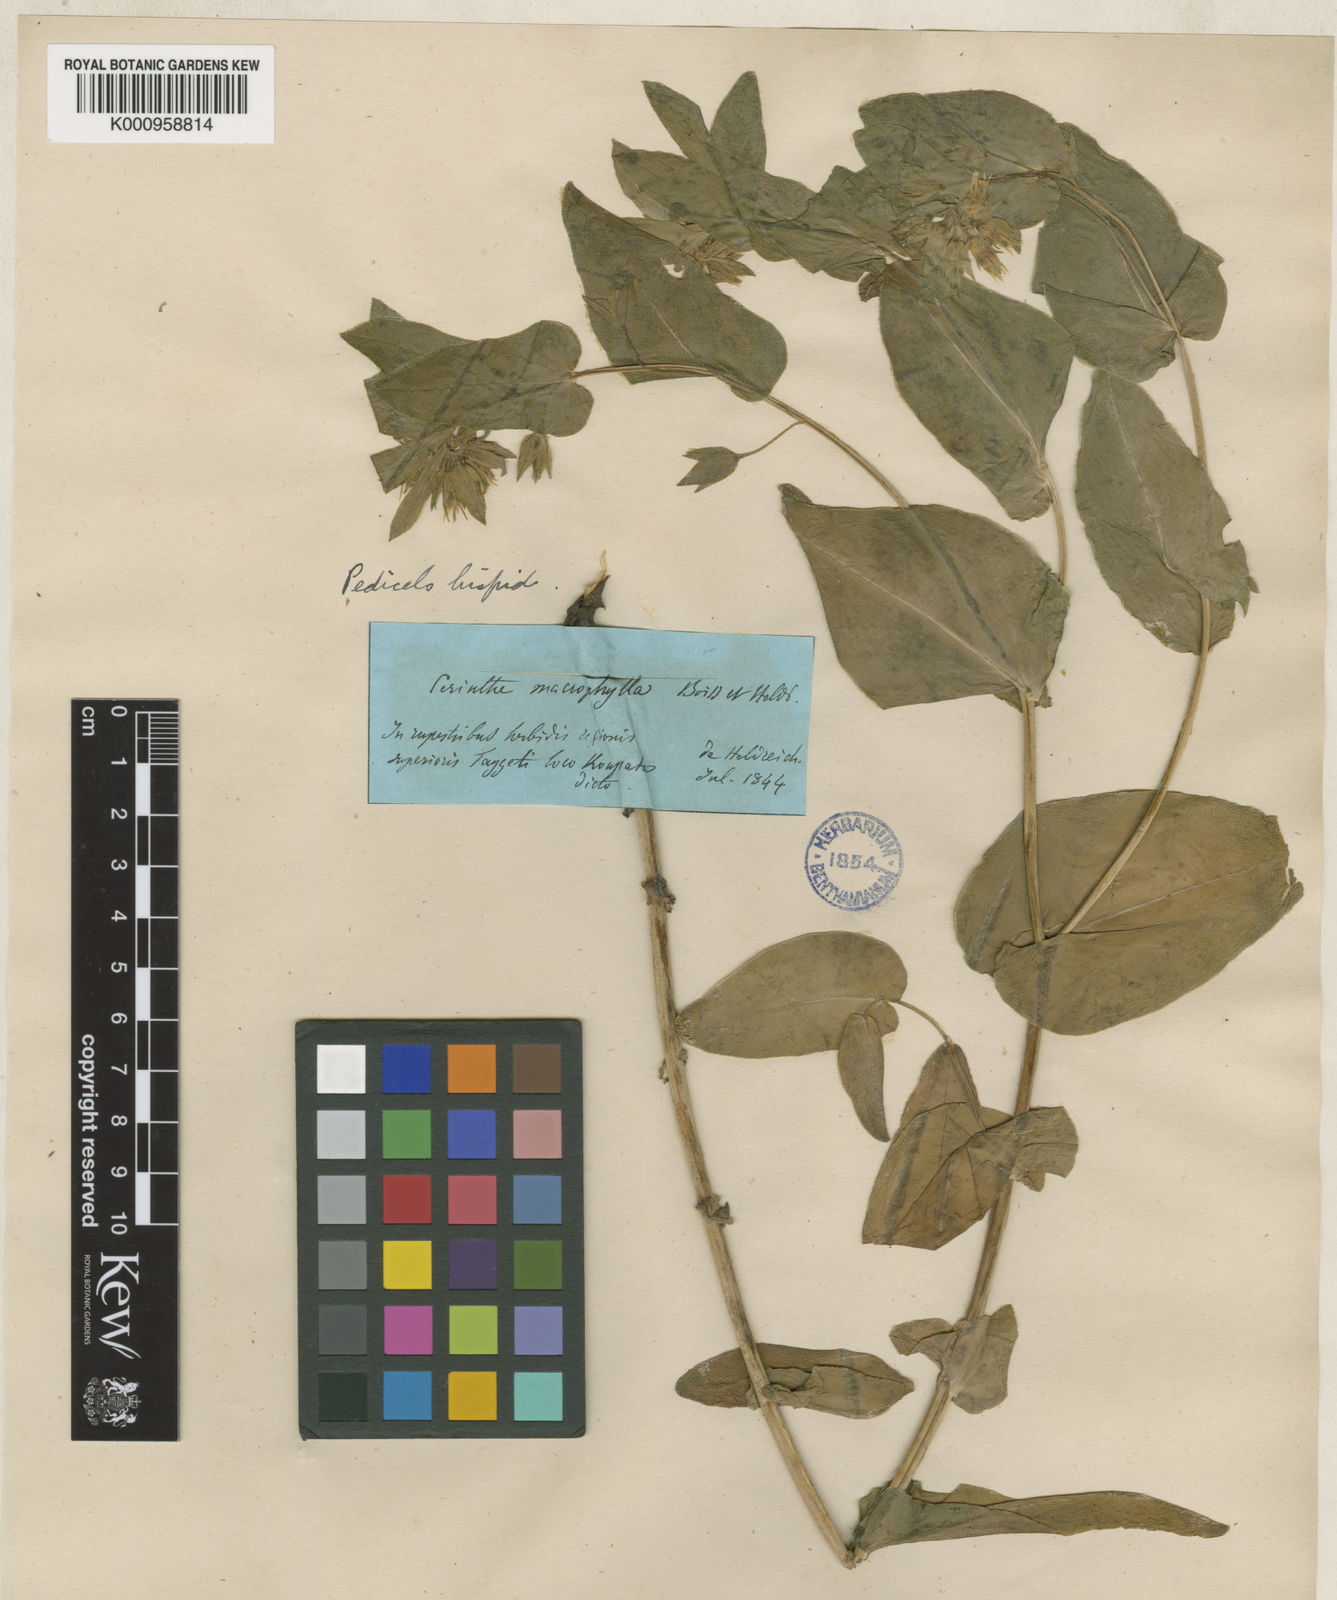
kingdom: Plantae
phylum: Tracheophyta
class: Magnoliopsida
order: Boraginales
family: Boraginaceae
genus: Cerinthe
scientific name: Cerinthe minor
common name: Lesser honeywort
